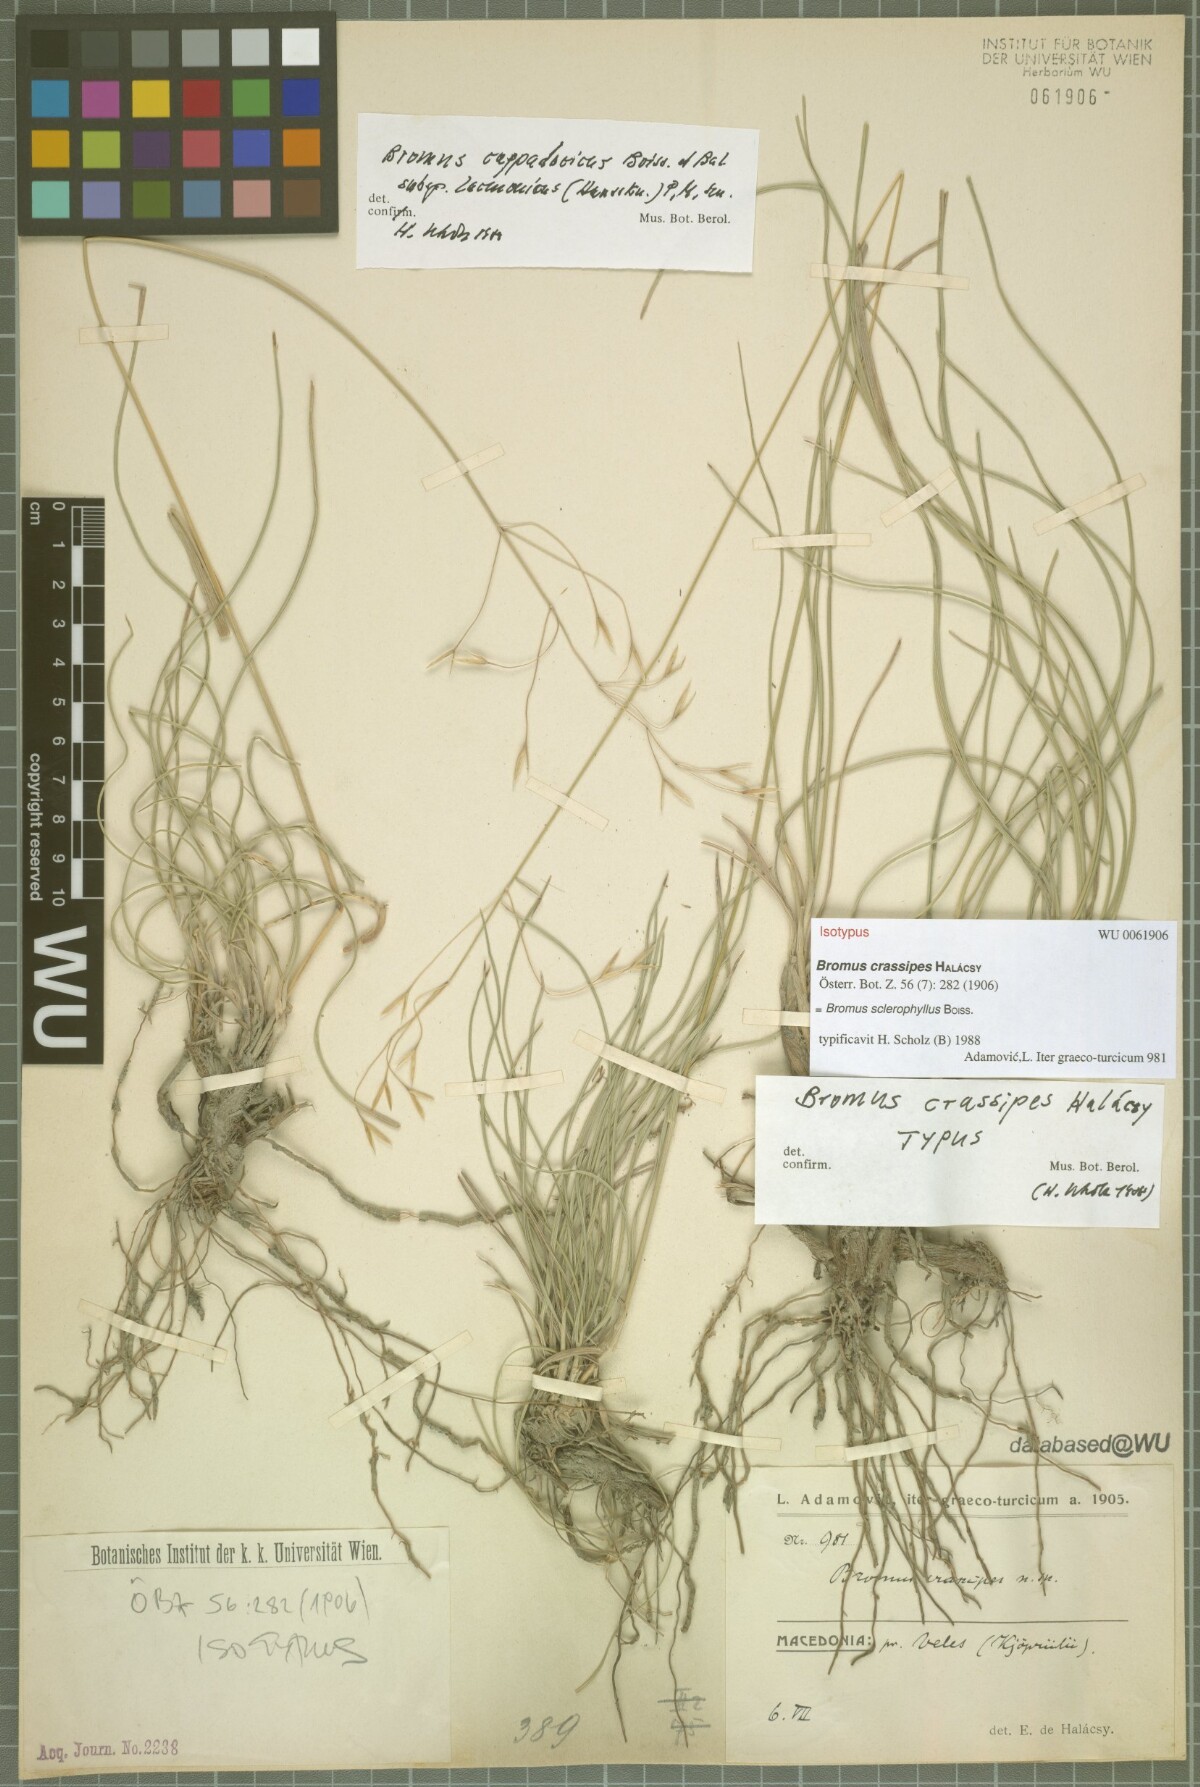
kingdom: Plantae
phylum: Tracheophyta
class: Liliopsida
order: Poales
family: Poaceae
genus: Bromus
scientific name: Bromus sclerophyllus
